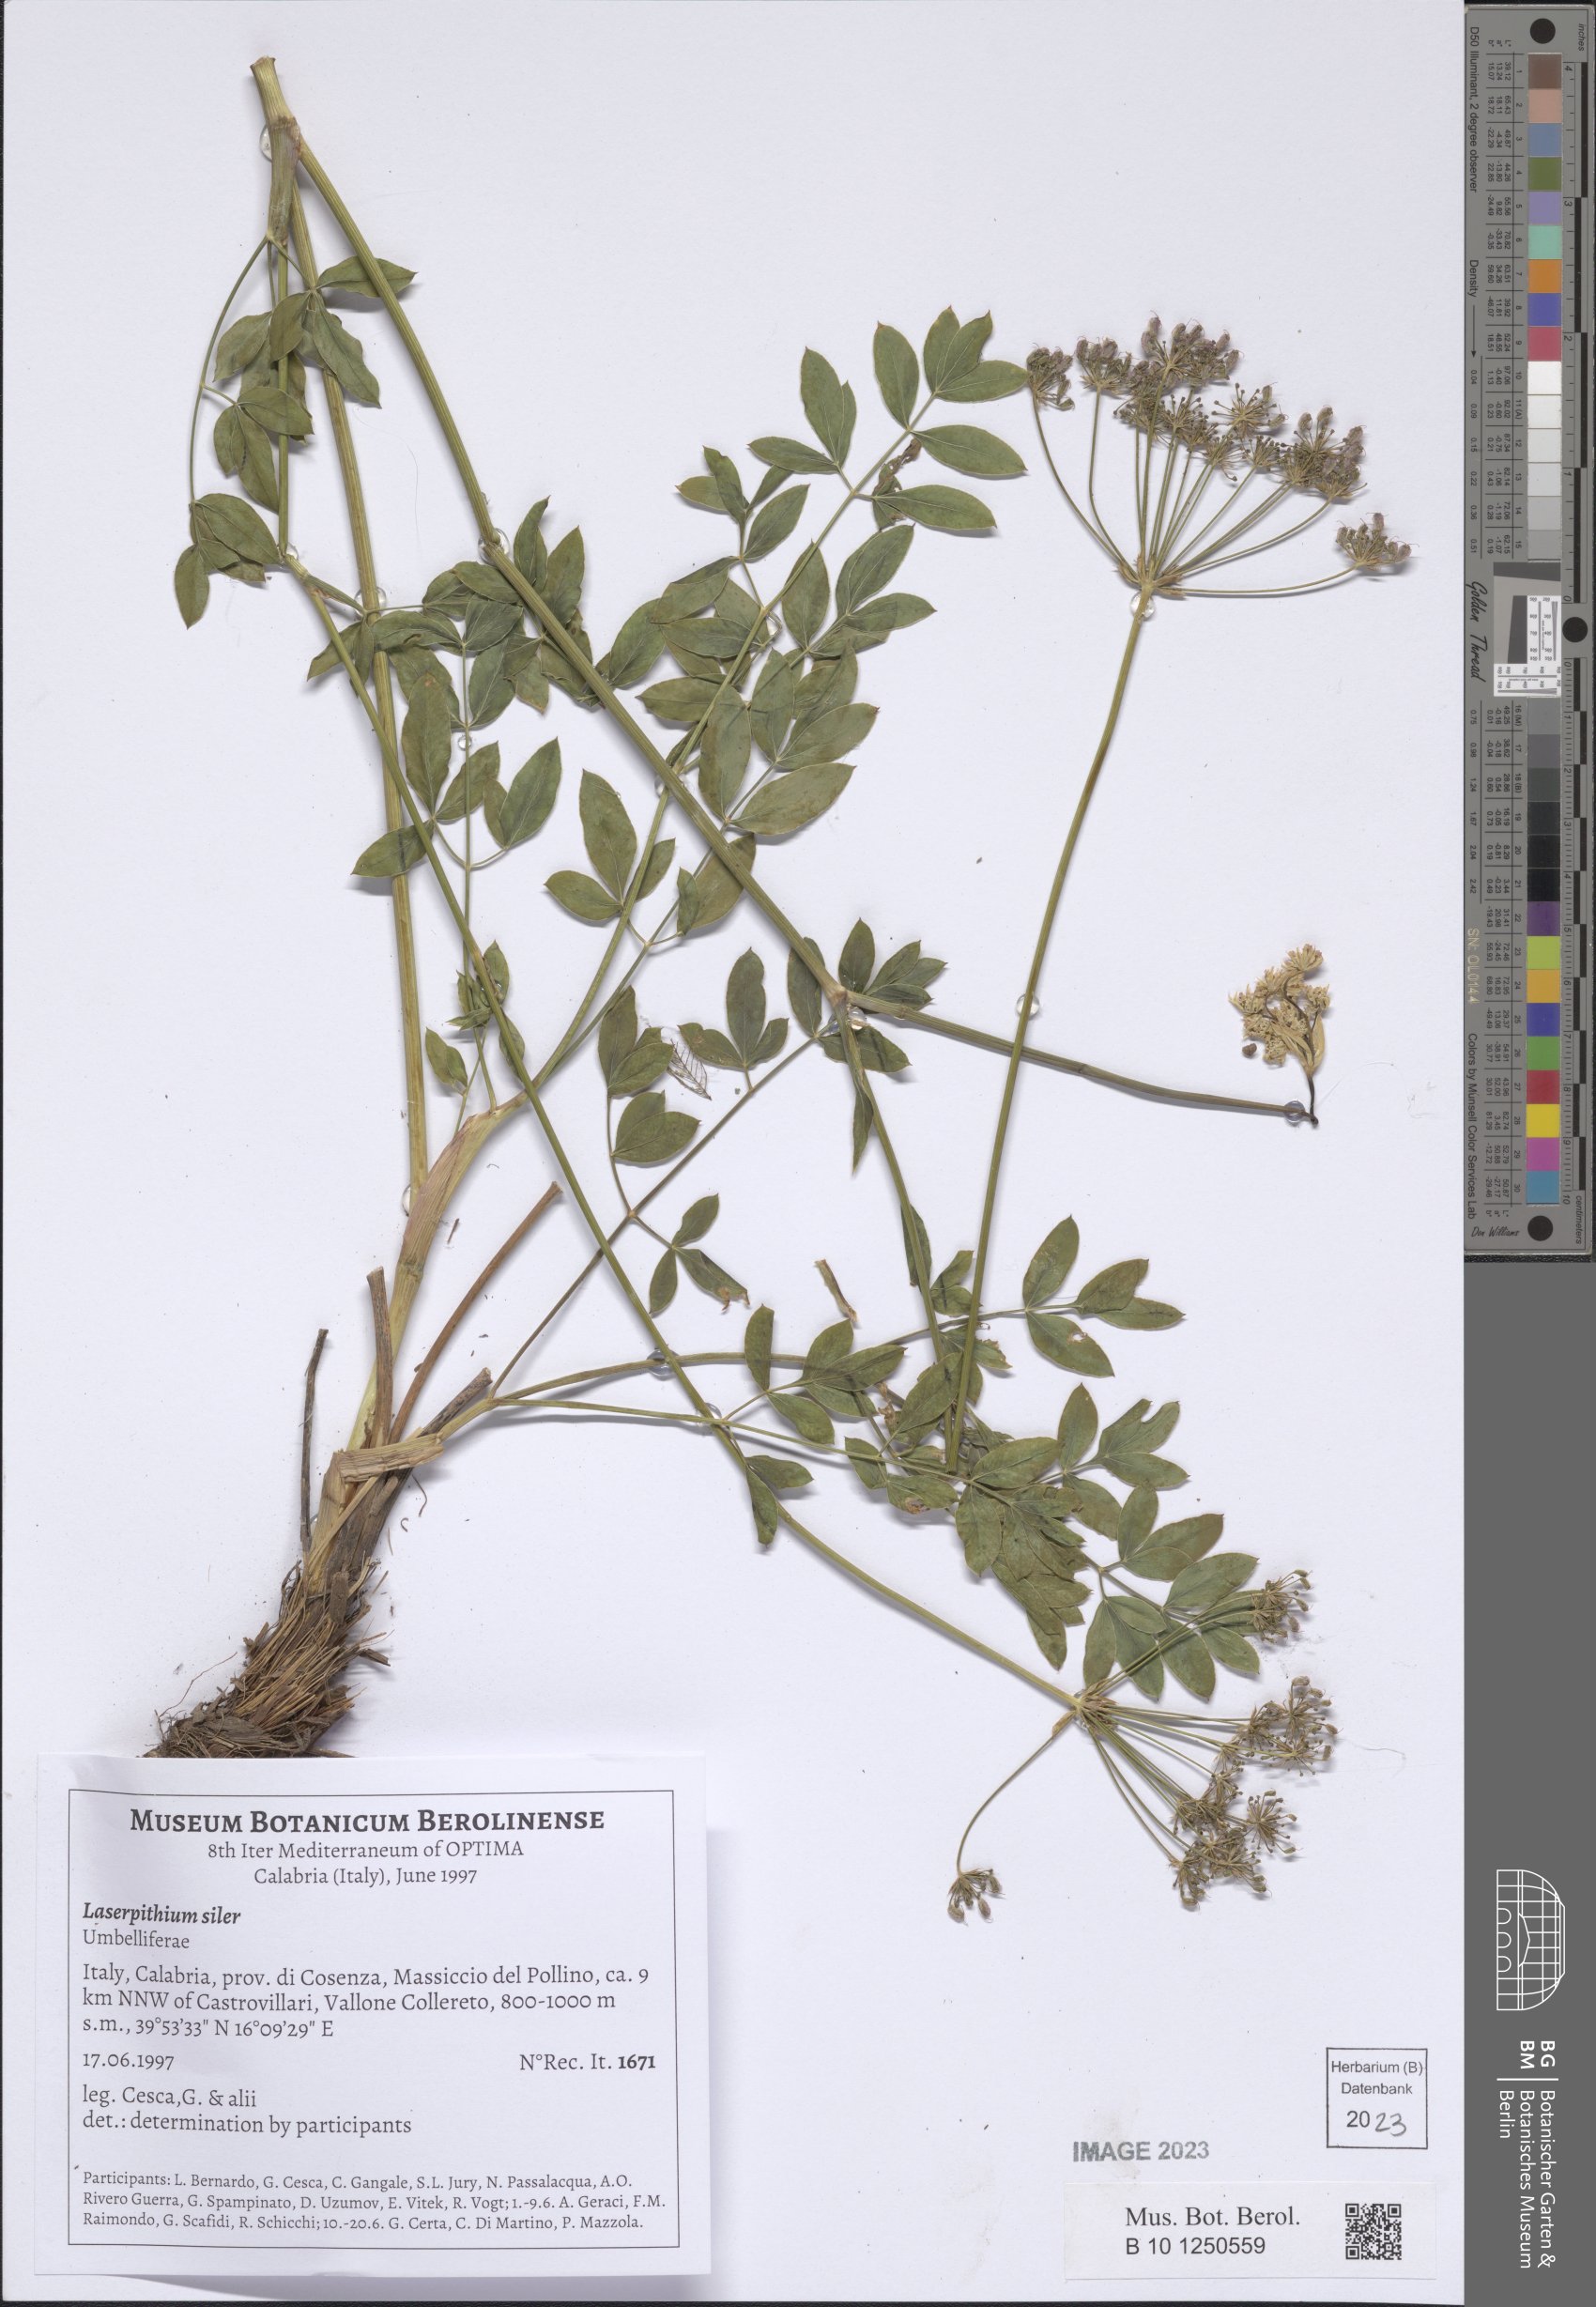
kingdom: Plantae
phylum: Tracheophyta
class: Magnoliopsida
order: Apiales
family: Apiaceae
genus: Siler
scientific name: Siler montanum
